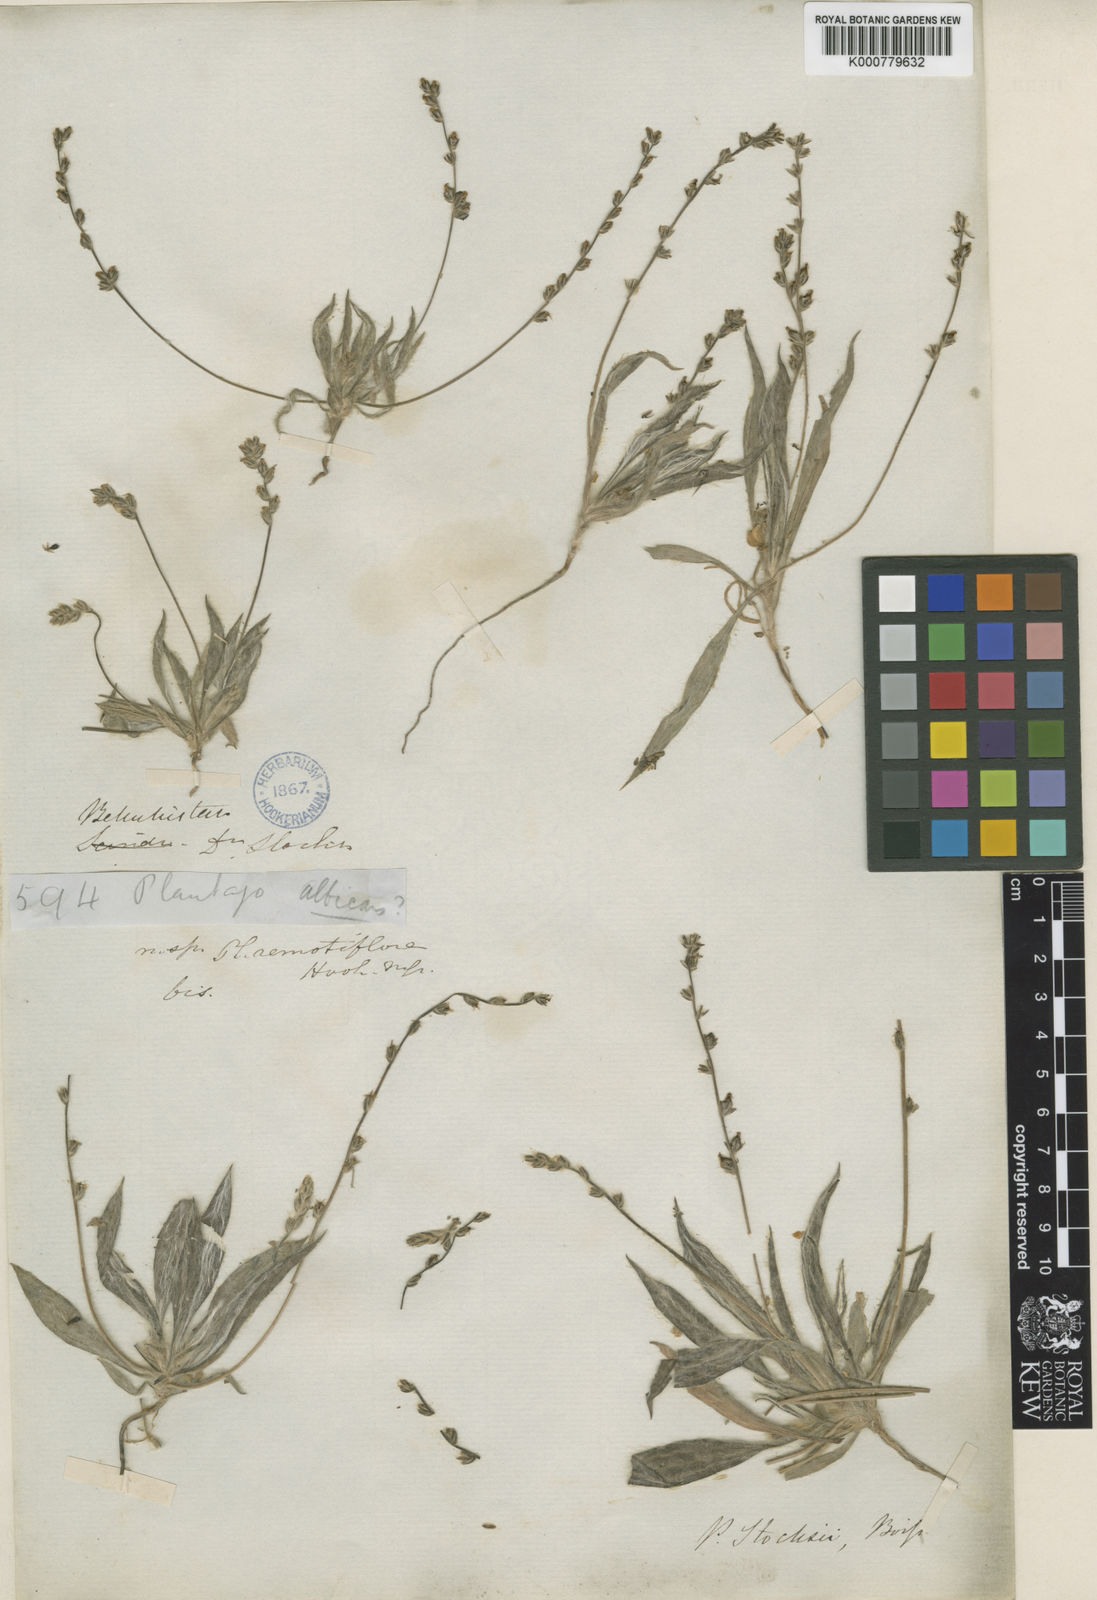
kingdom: Plantae
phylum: Tracheophyta
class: Magnoliopsida
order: Lamiales
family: Plantaginaceae
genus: Plantago
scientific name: Plantago stocksii
